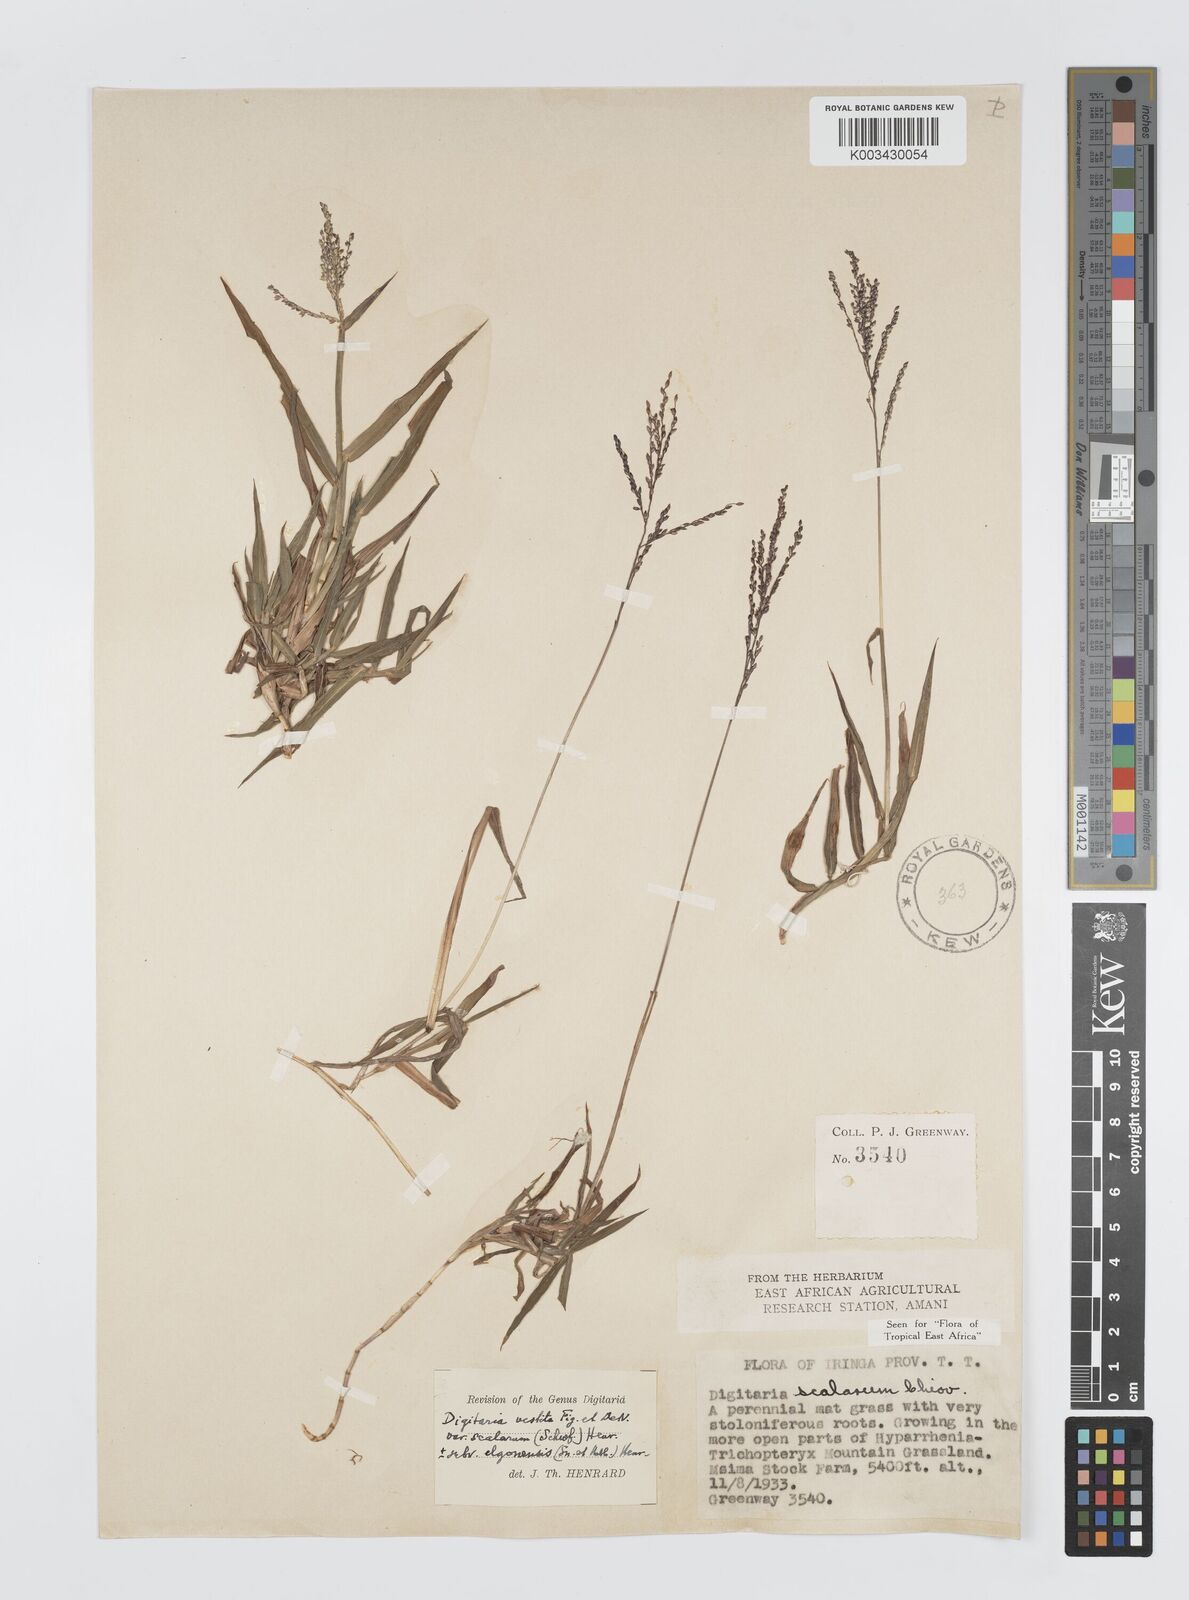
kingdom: Plantae
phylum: Tracheophyta
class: Liliopsida
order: Poales
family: Poaceae
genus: Digitaria
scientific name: Digitaria abyssinica
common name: African couchgrass
